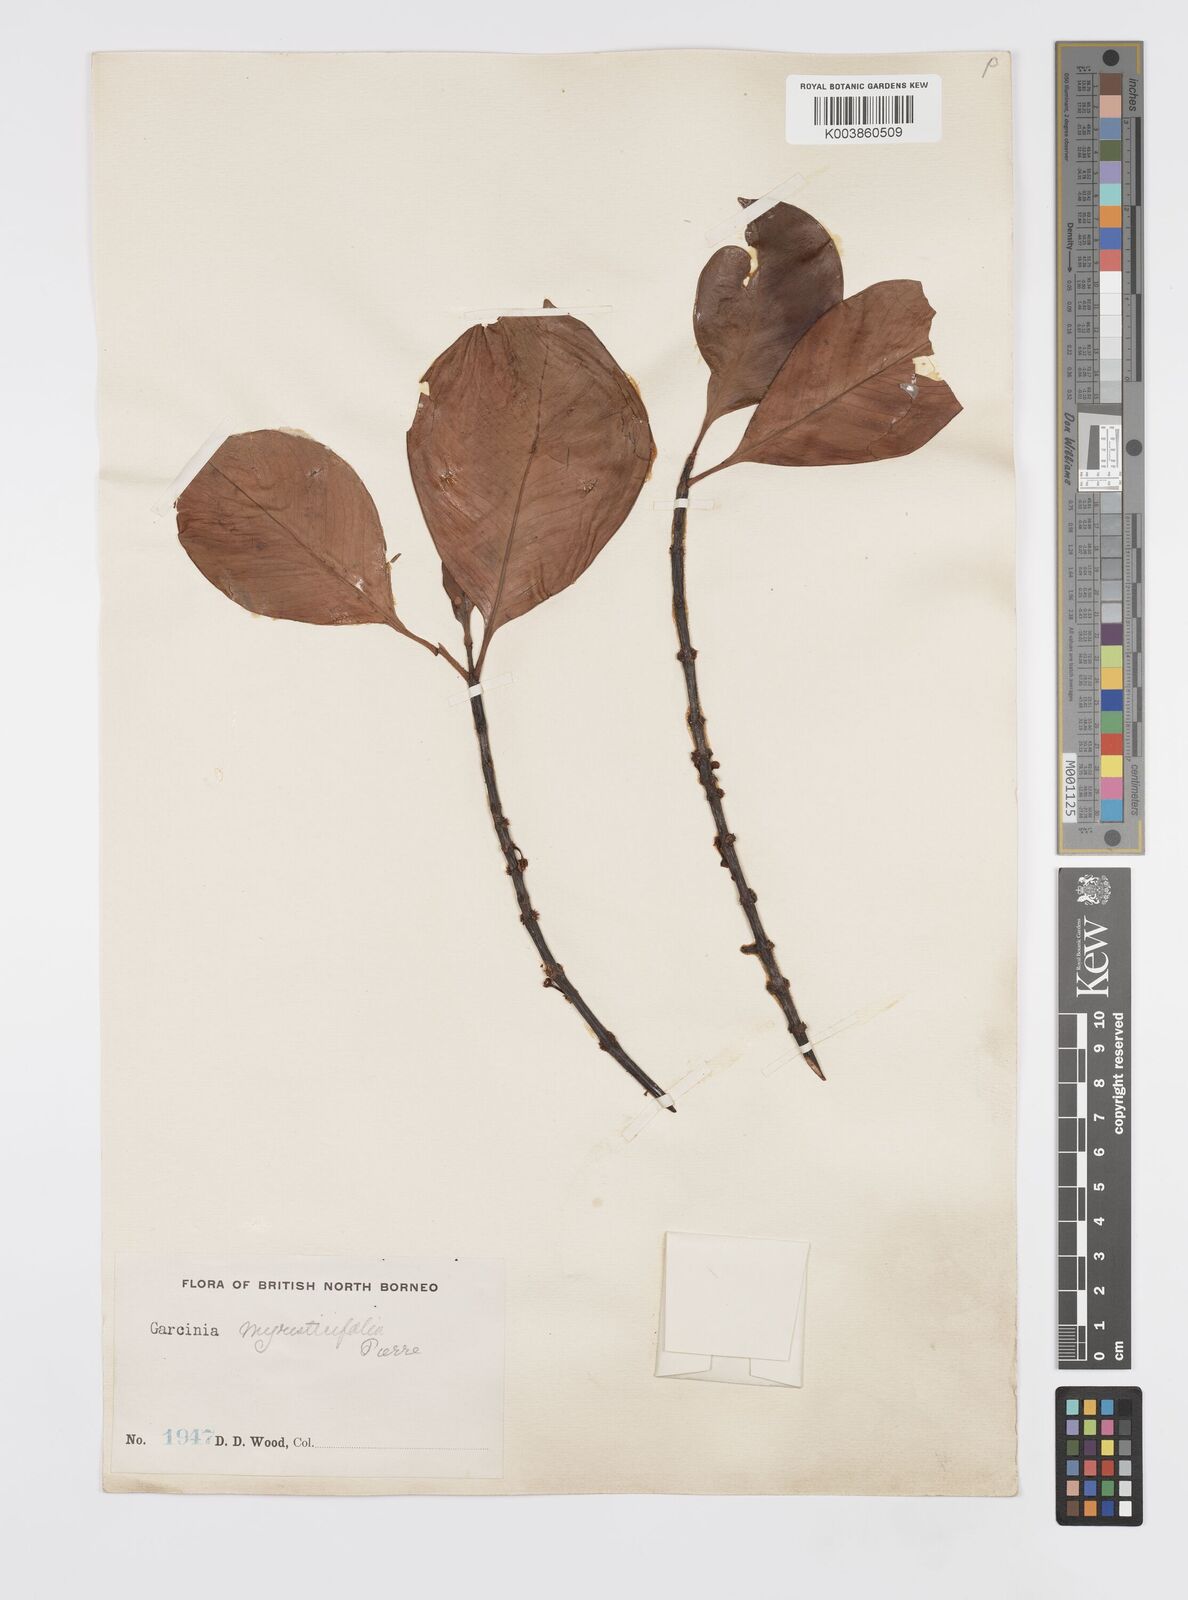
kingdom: Plantae
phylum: Tracheophyta
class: Magnoliopsida
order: Malpighiales
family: Clusiaceae
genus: Garcinia
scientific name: Garcinia myristicifolia
